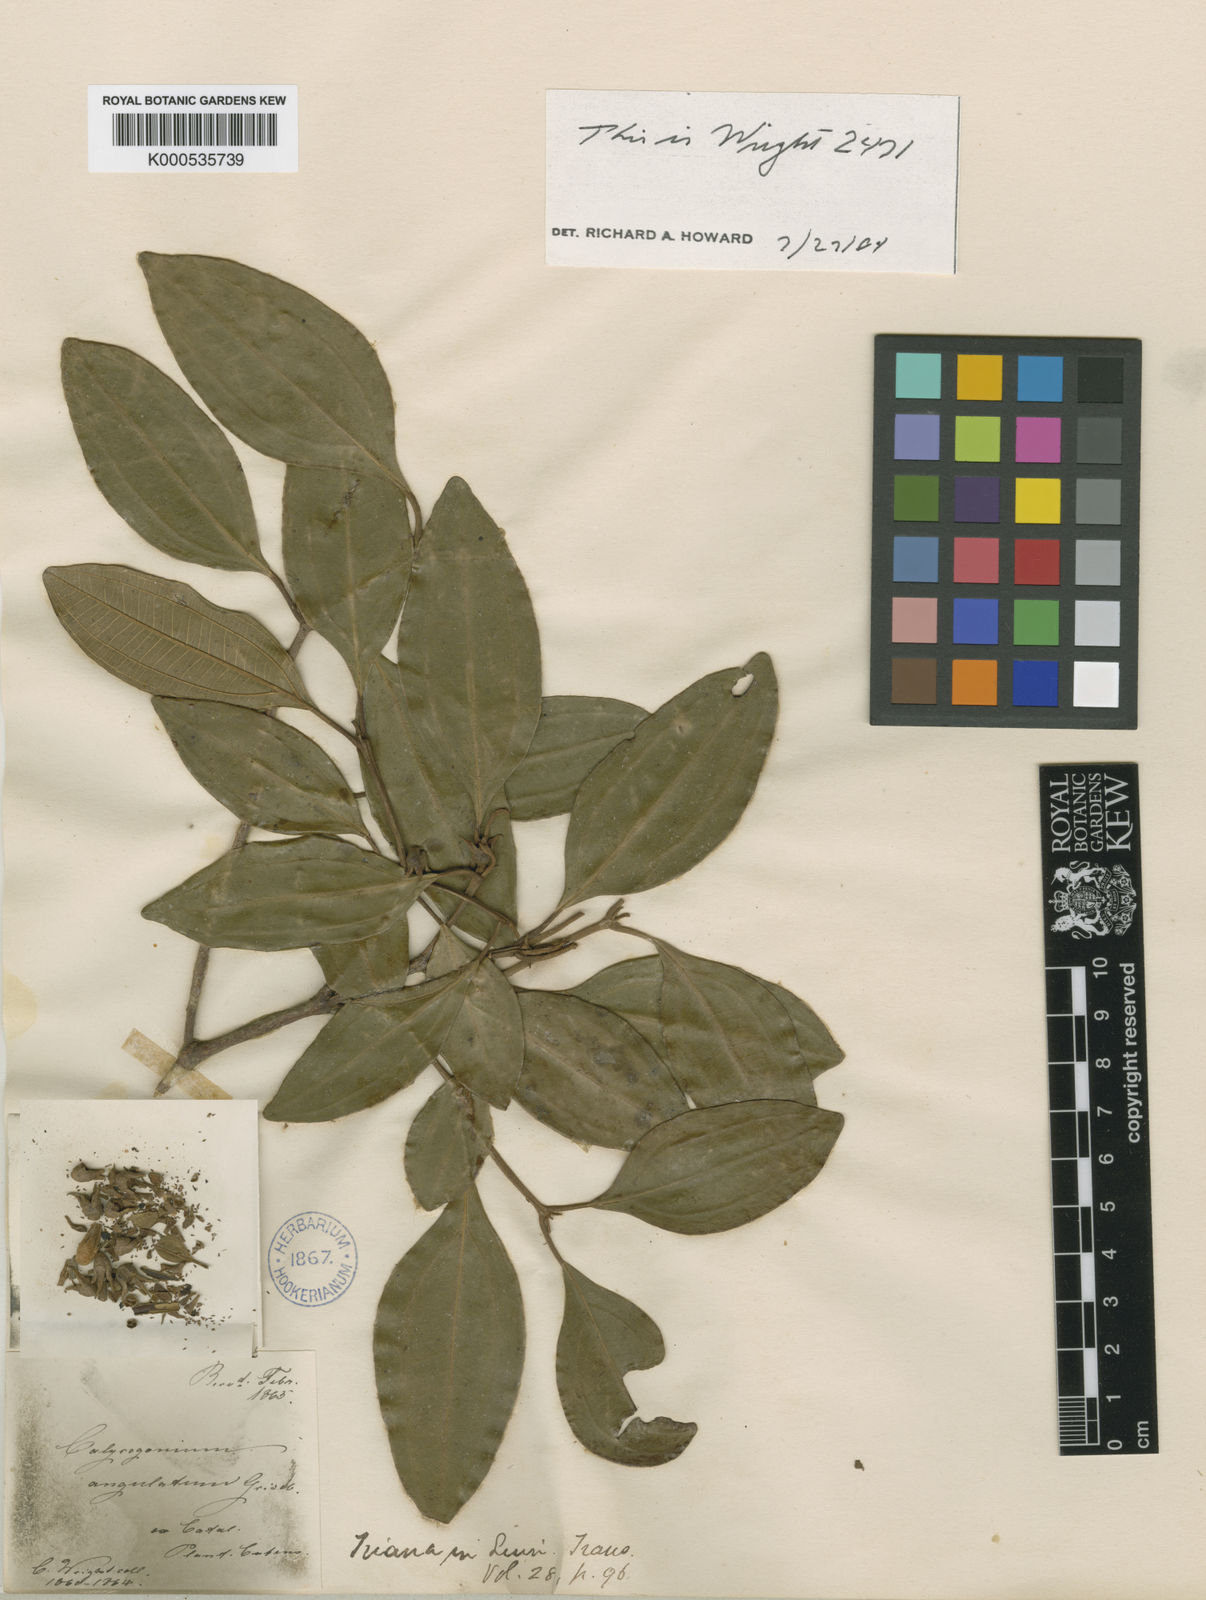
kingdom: Plantae
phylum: Tracheophyta
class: Magnoliopsida
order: Myrtales
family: Melastomataceae
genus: Miconia
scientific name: Miconia angulata
